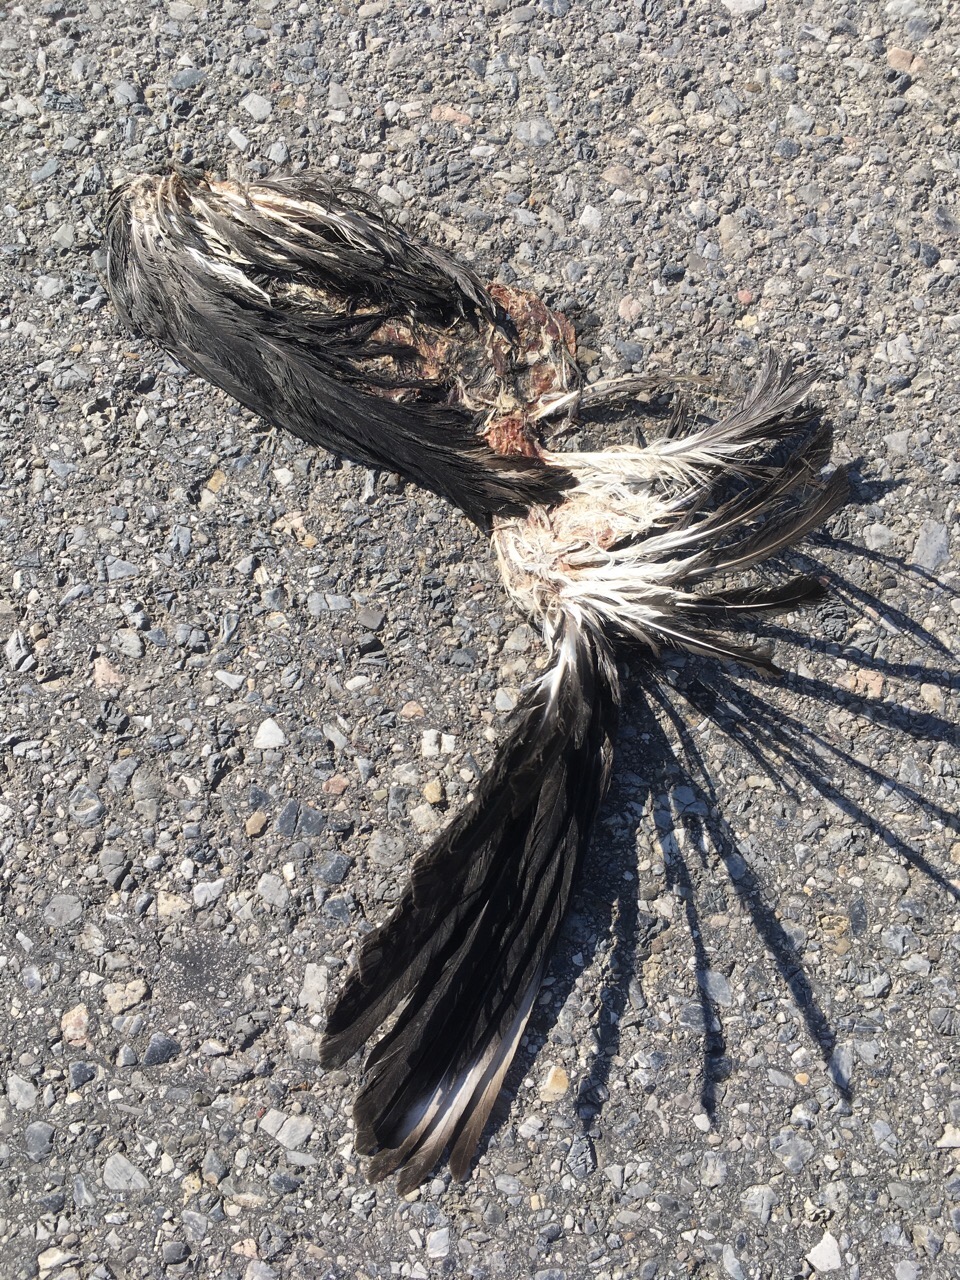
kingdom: Animalia
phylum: Chordata
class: Aves
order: Charadriiformes
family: Charadriidae
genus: Vanellus
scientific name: Vanellus vanellus
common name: Northern lapwing
